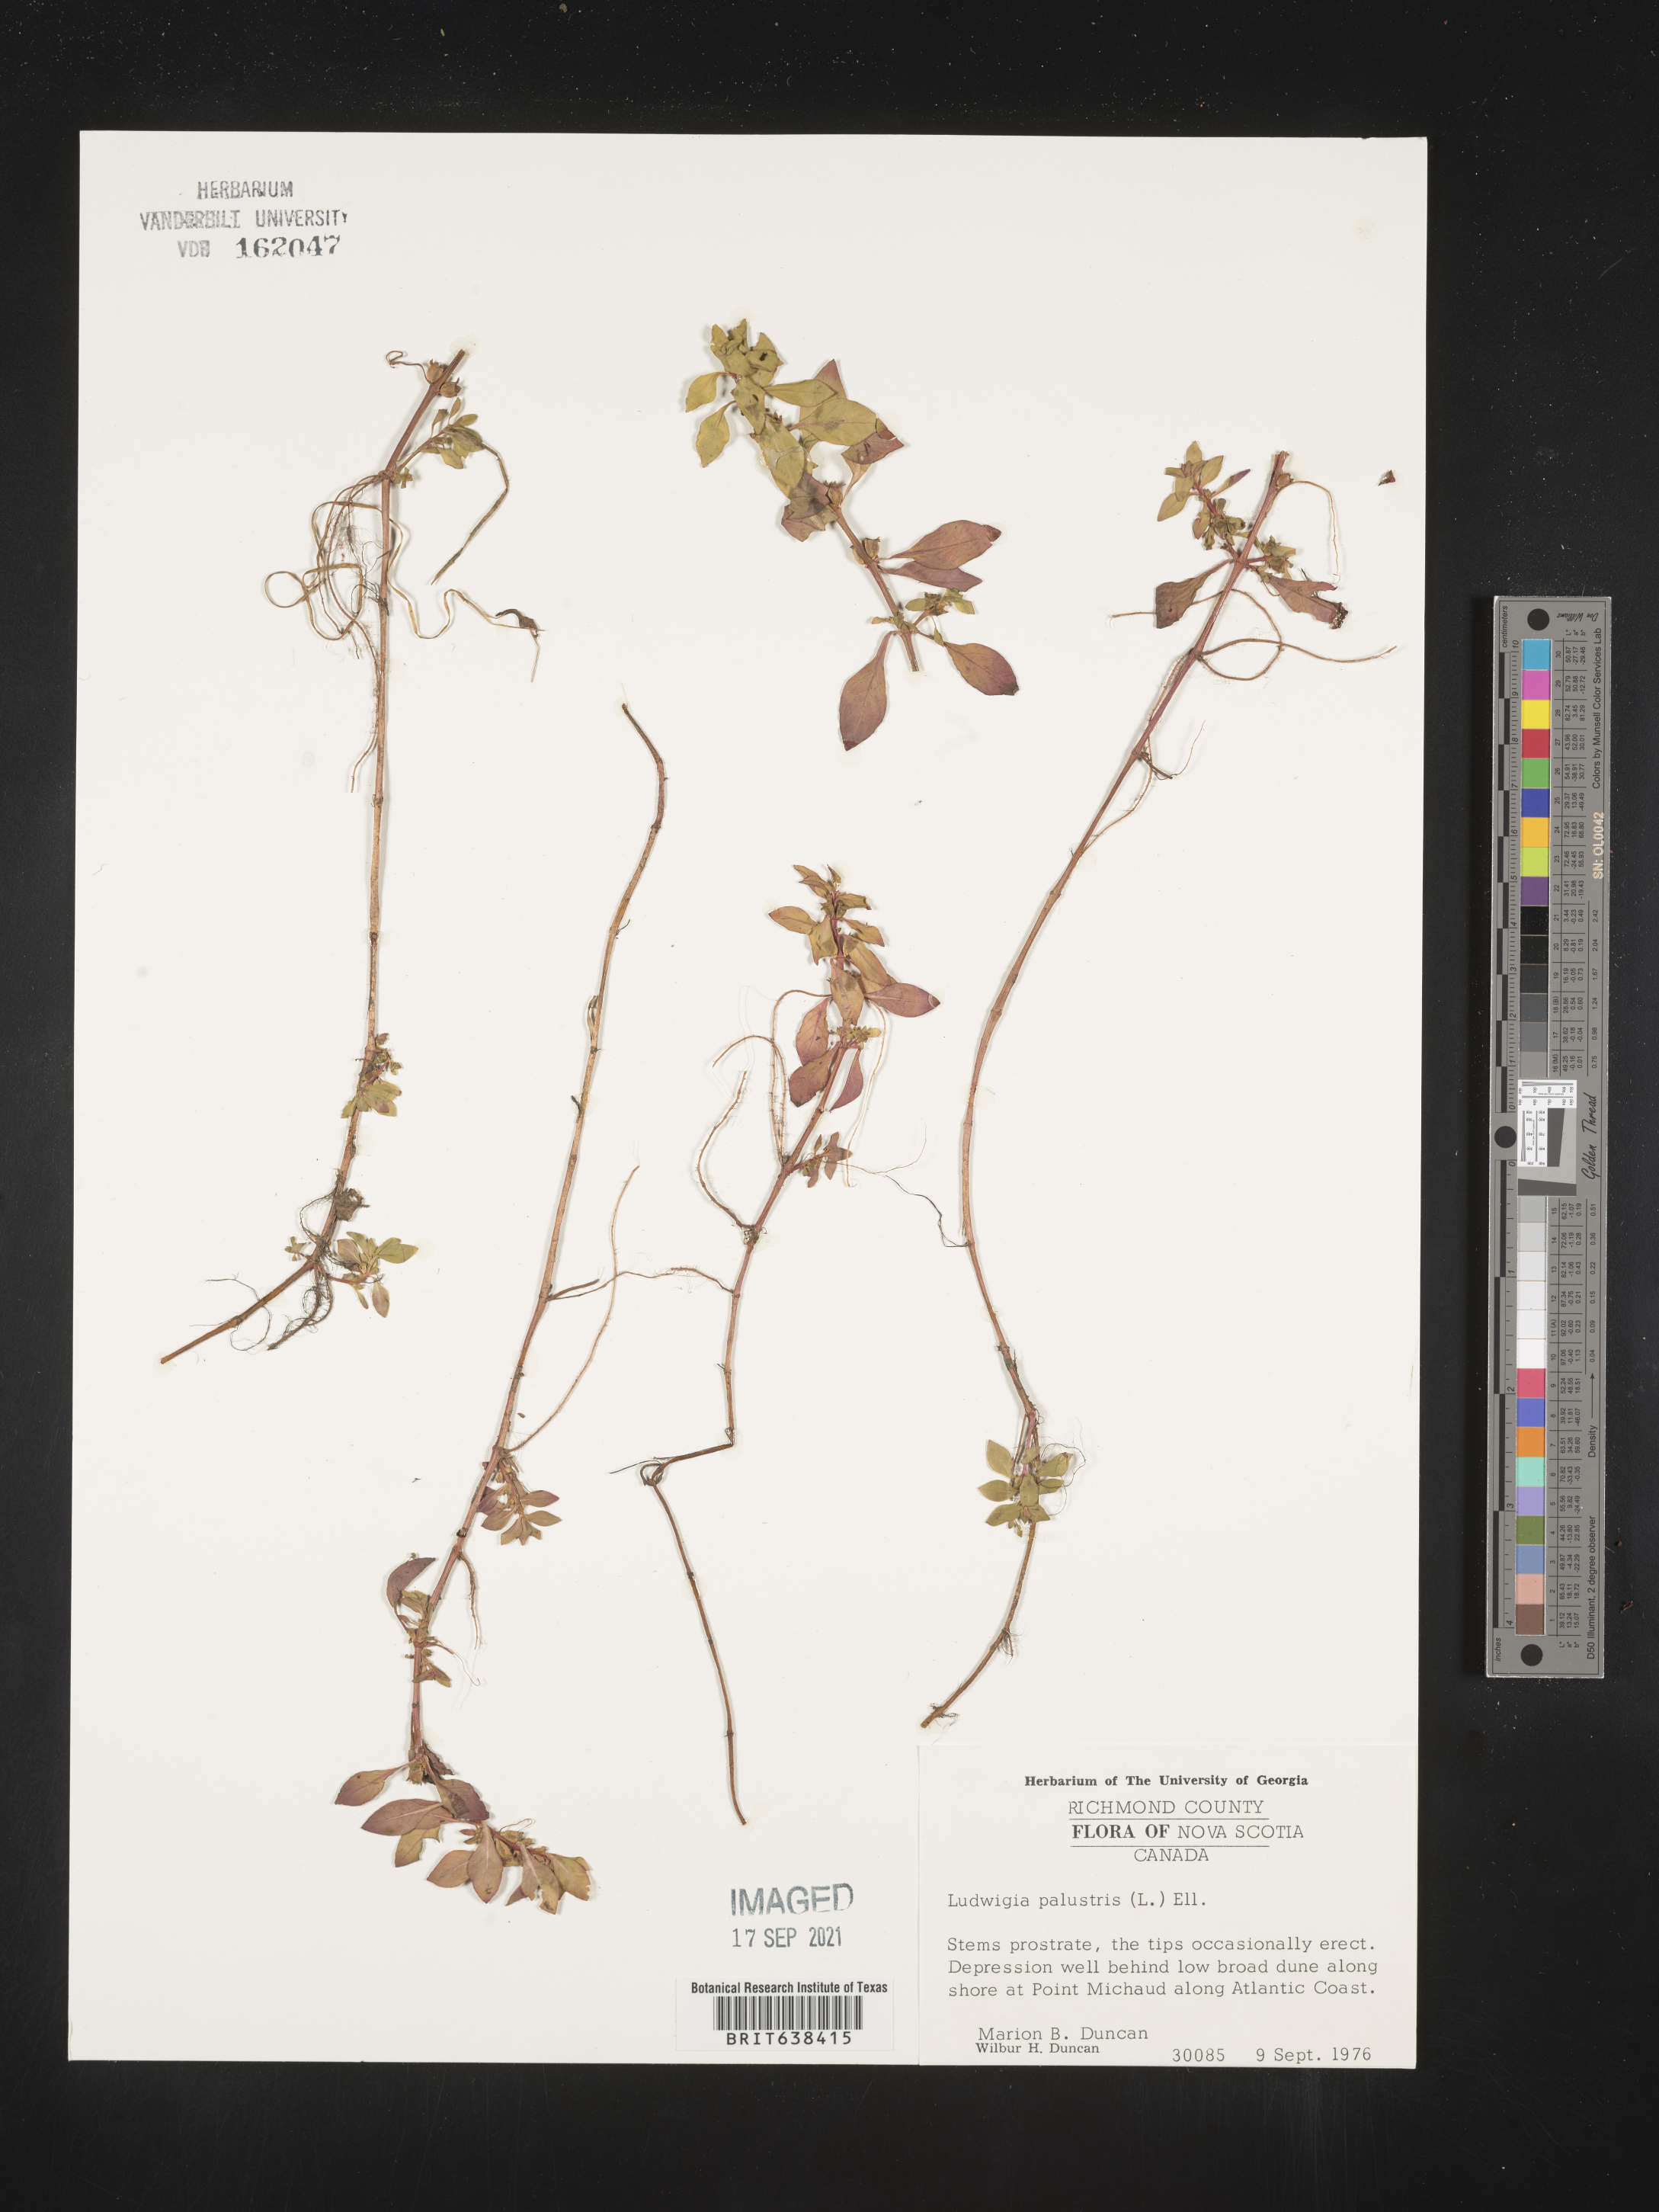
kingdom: Plantae
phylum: Tracheophyta
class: Magnoliopsida
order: Myrtales
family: Onagraceae
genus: Ludwigia
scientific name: Ludwigia
